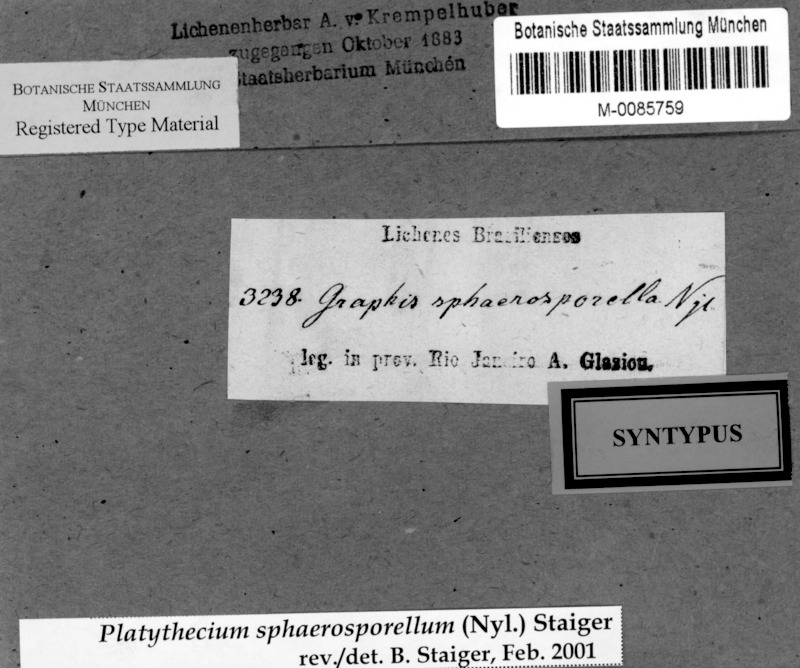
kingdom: Fungi
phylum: Ascomycota
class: Lecanoromycetes
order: Ostropales
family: Graphidaceae
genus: Platythecium
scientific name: Platythecium sphaerosporellum
